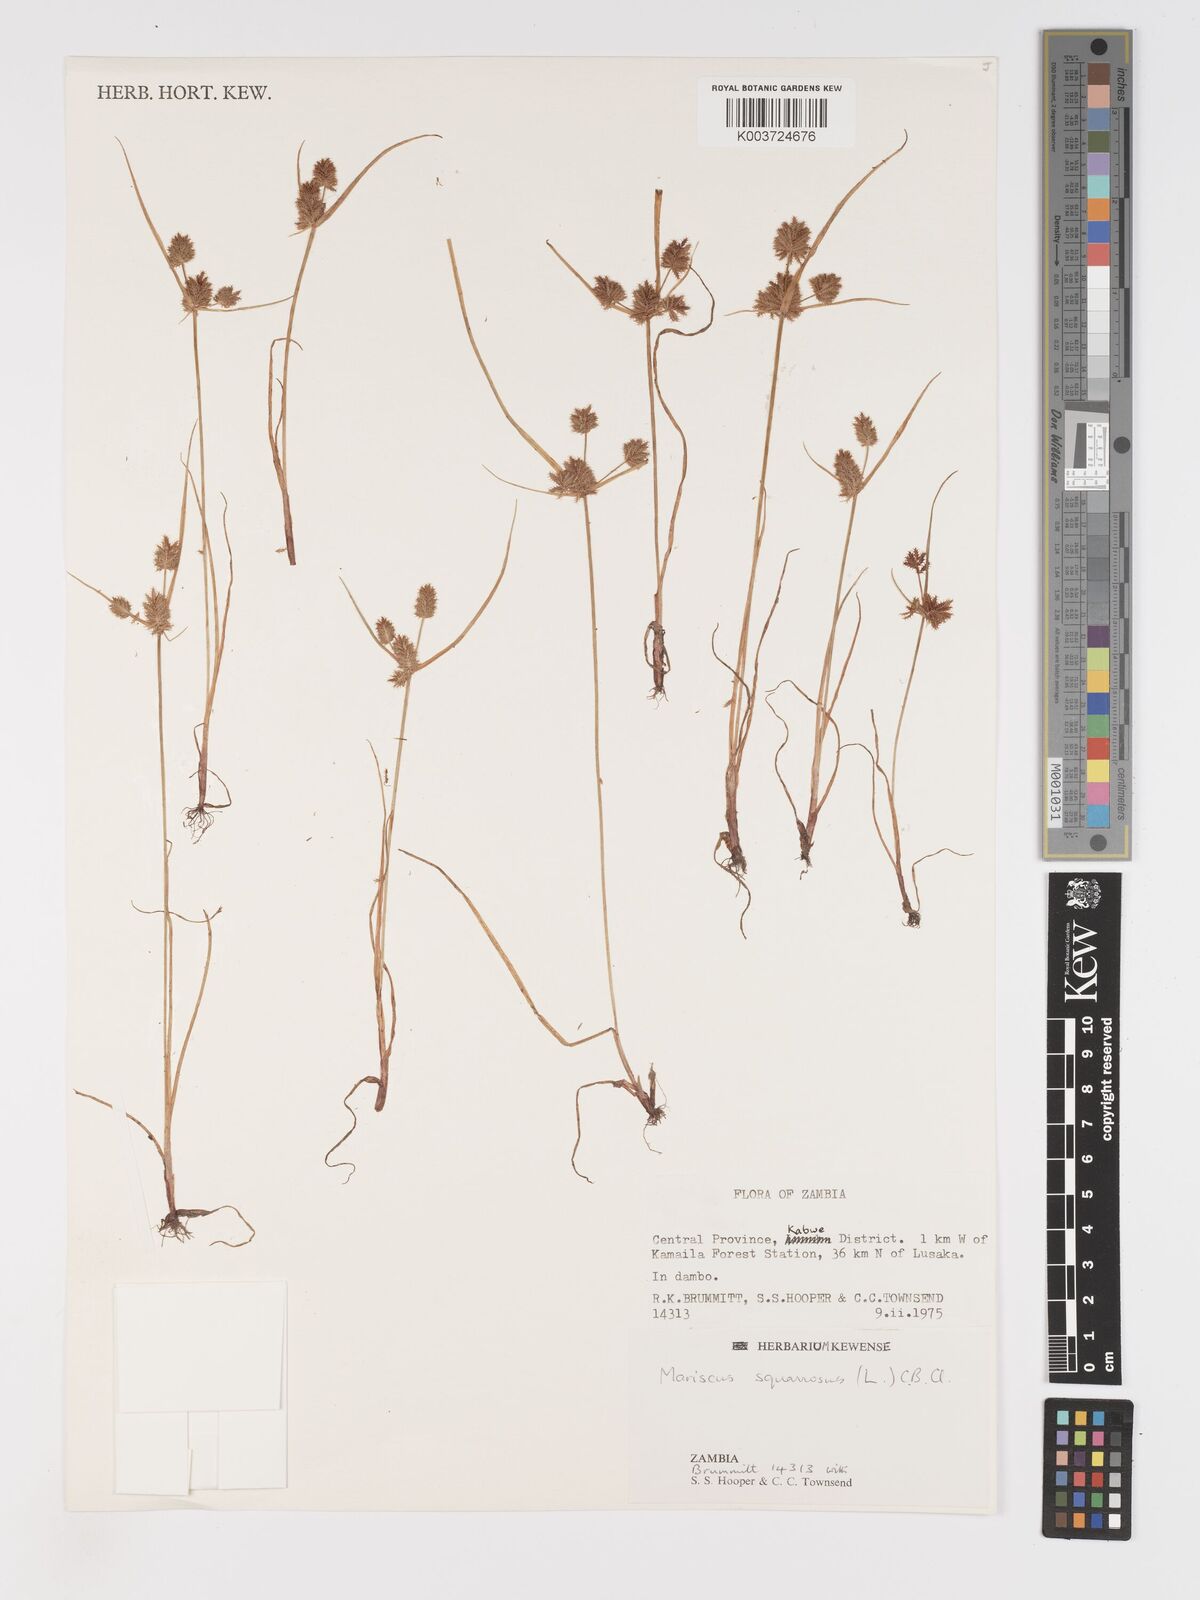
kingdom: Plantae
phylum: Tracheophyta
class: Liliopsida
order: Poales
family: Cyperaceae
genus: Cyperus
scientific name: Cyperus squarrosus
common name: Awned cyperus
